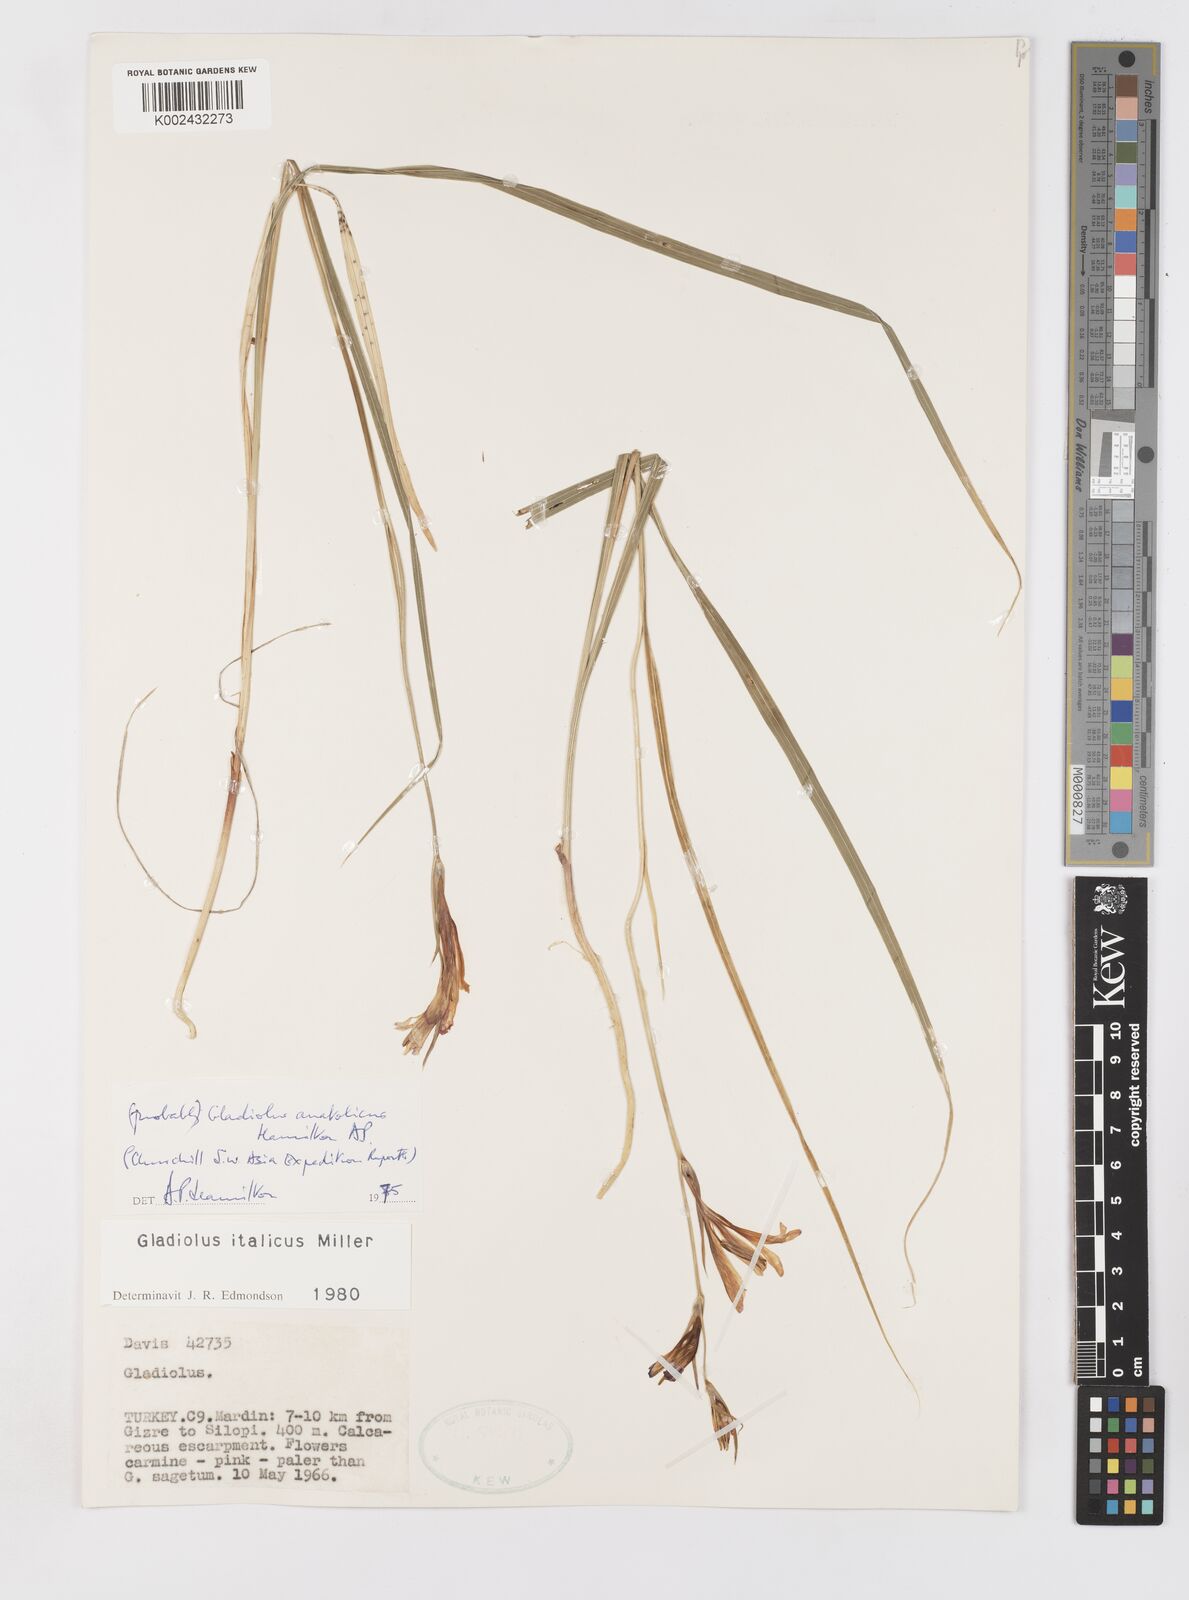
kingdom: Plantae
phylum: Tracheophyta
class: Liliopsida
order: Asparagales
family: Iridaceae
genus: Gladiolus
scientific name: Gladiolus
